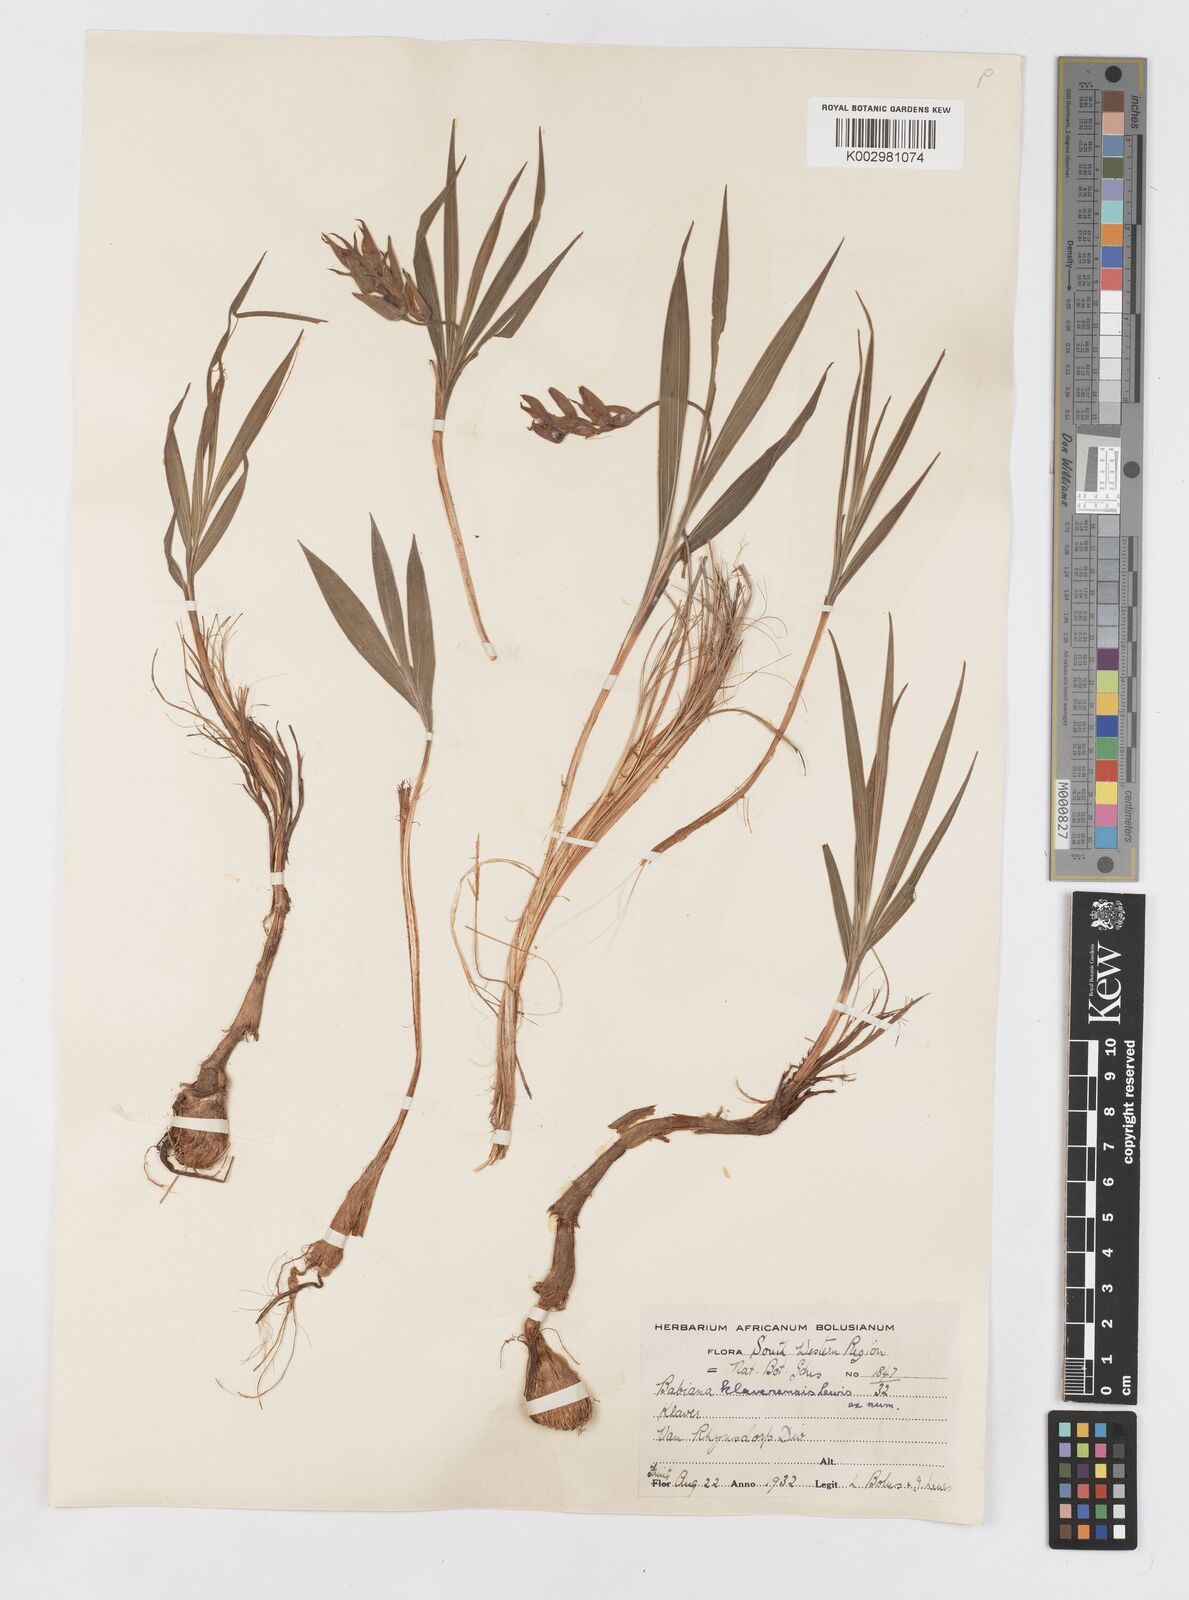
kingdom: Plantae
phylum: Tracheophyta
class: Liliopsida
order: Asparagales
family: Iridaceae
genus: Babiana
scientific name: Babiana mucronata
